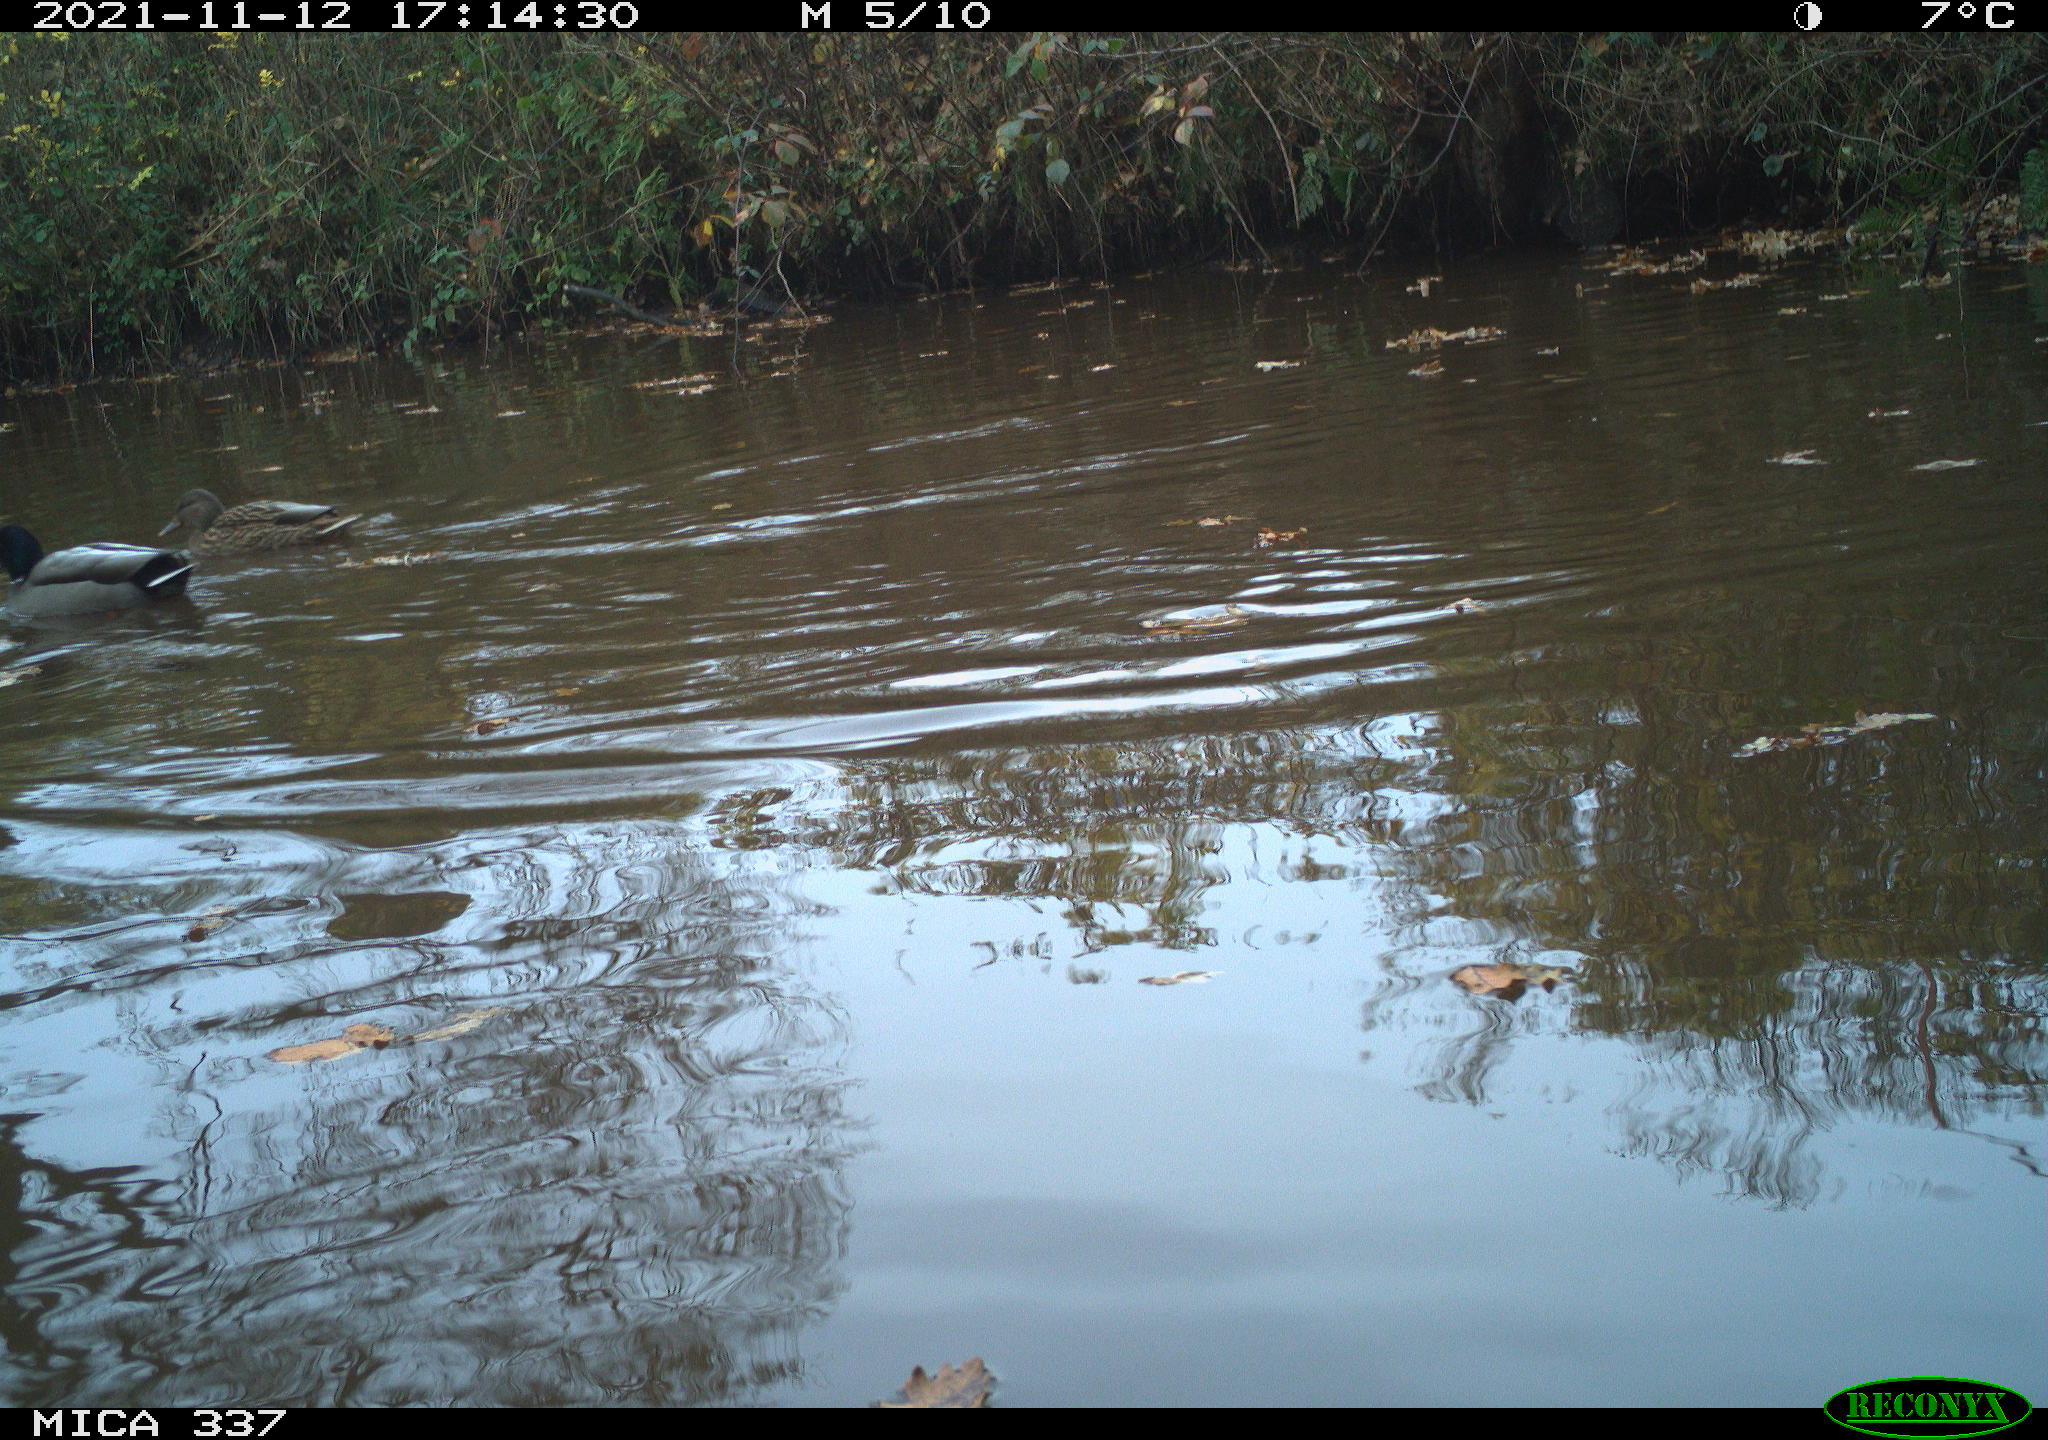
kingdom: Animalia
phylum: Chordata
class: Aves
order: Anseriformes
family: Anatidae
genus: Anas
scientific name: Anas platyrhynchos
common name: Mallard
